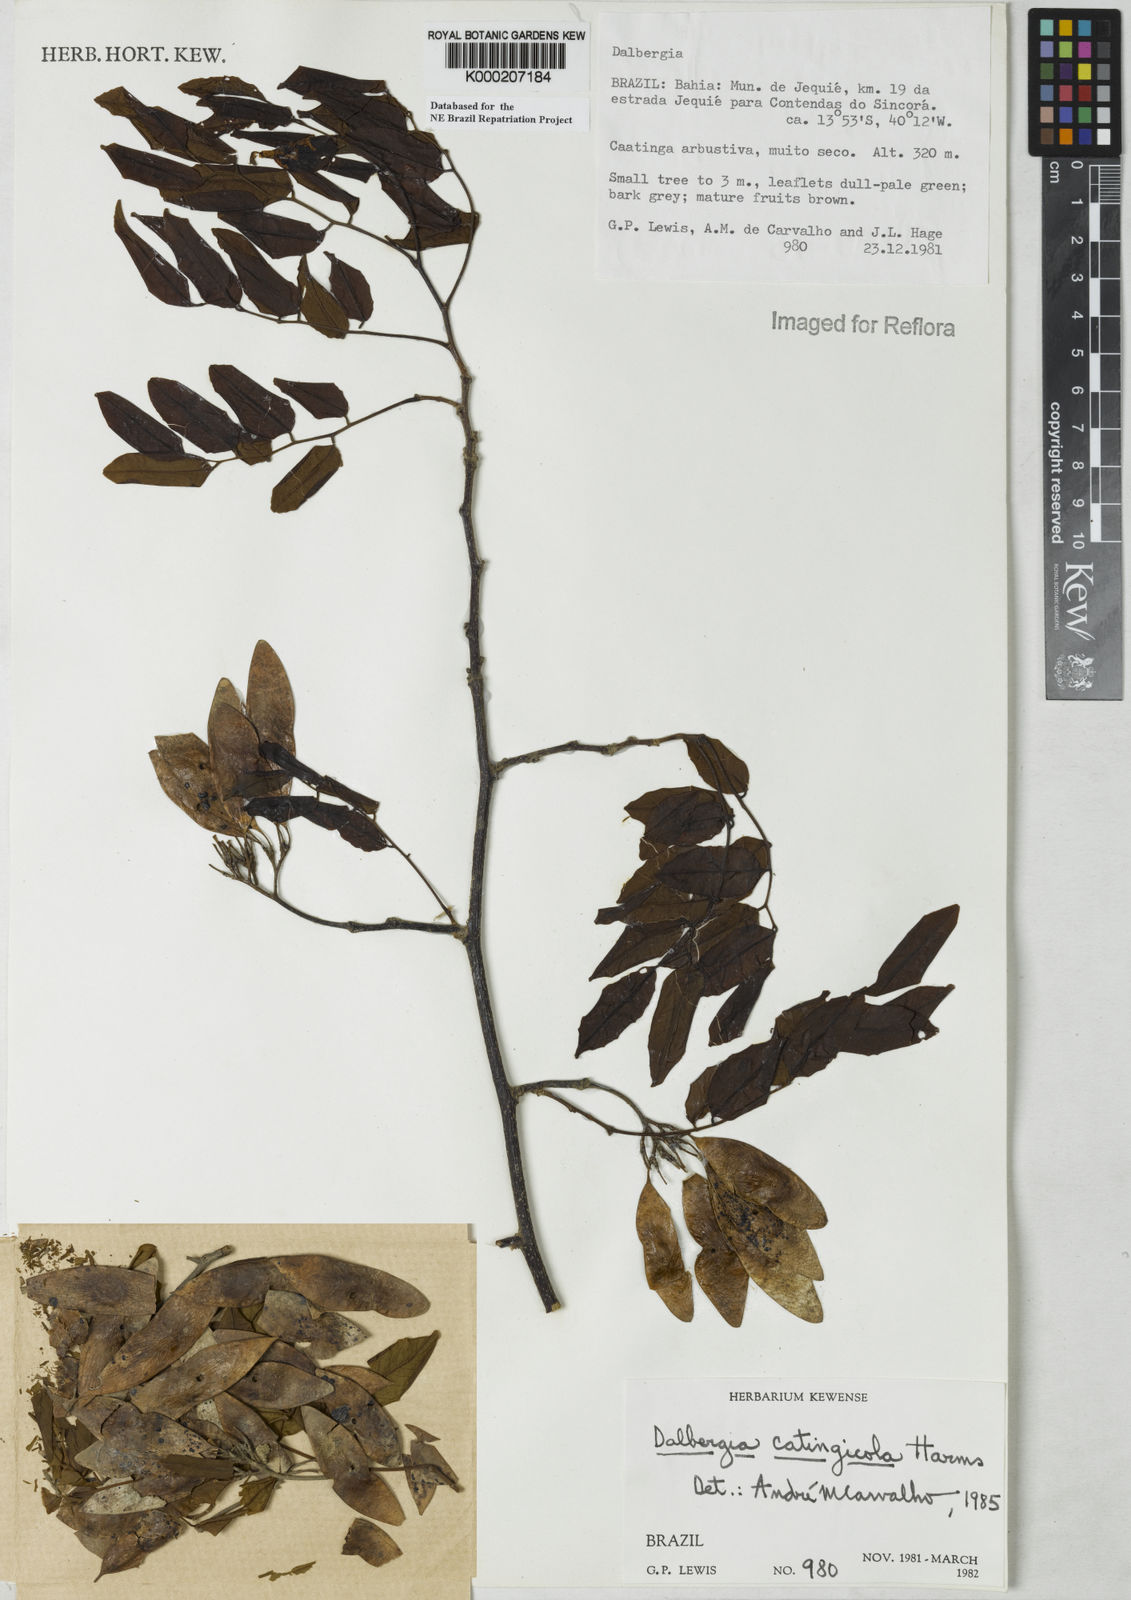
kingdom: Plantae
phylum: Tracheophyta
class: Magnoliopsida
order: Fabales
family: Fabaceae
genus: Dalbergia
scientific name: Dalbergia catingicola
